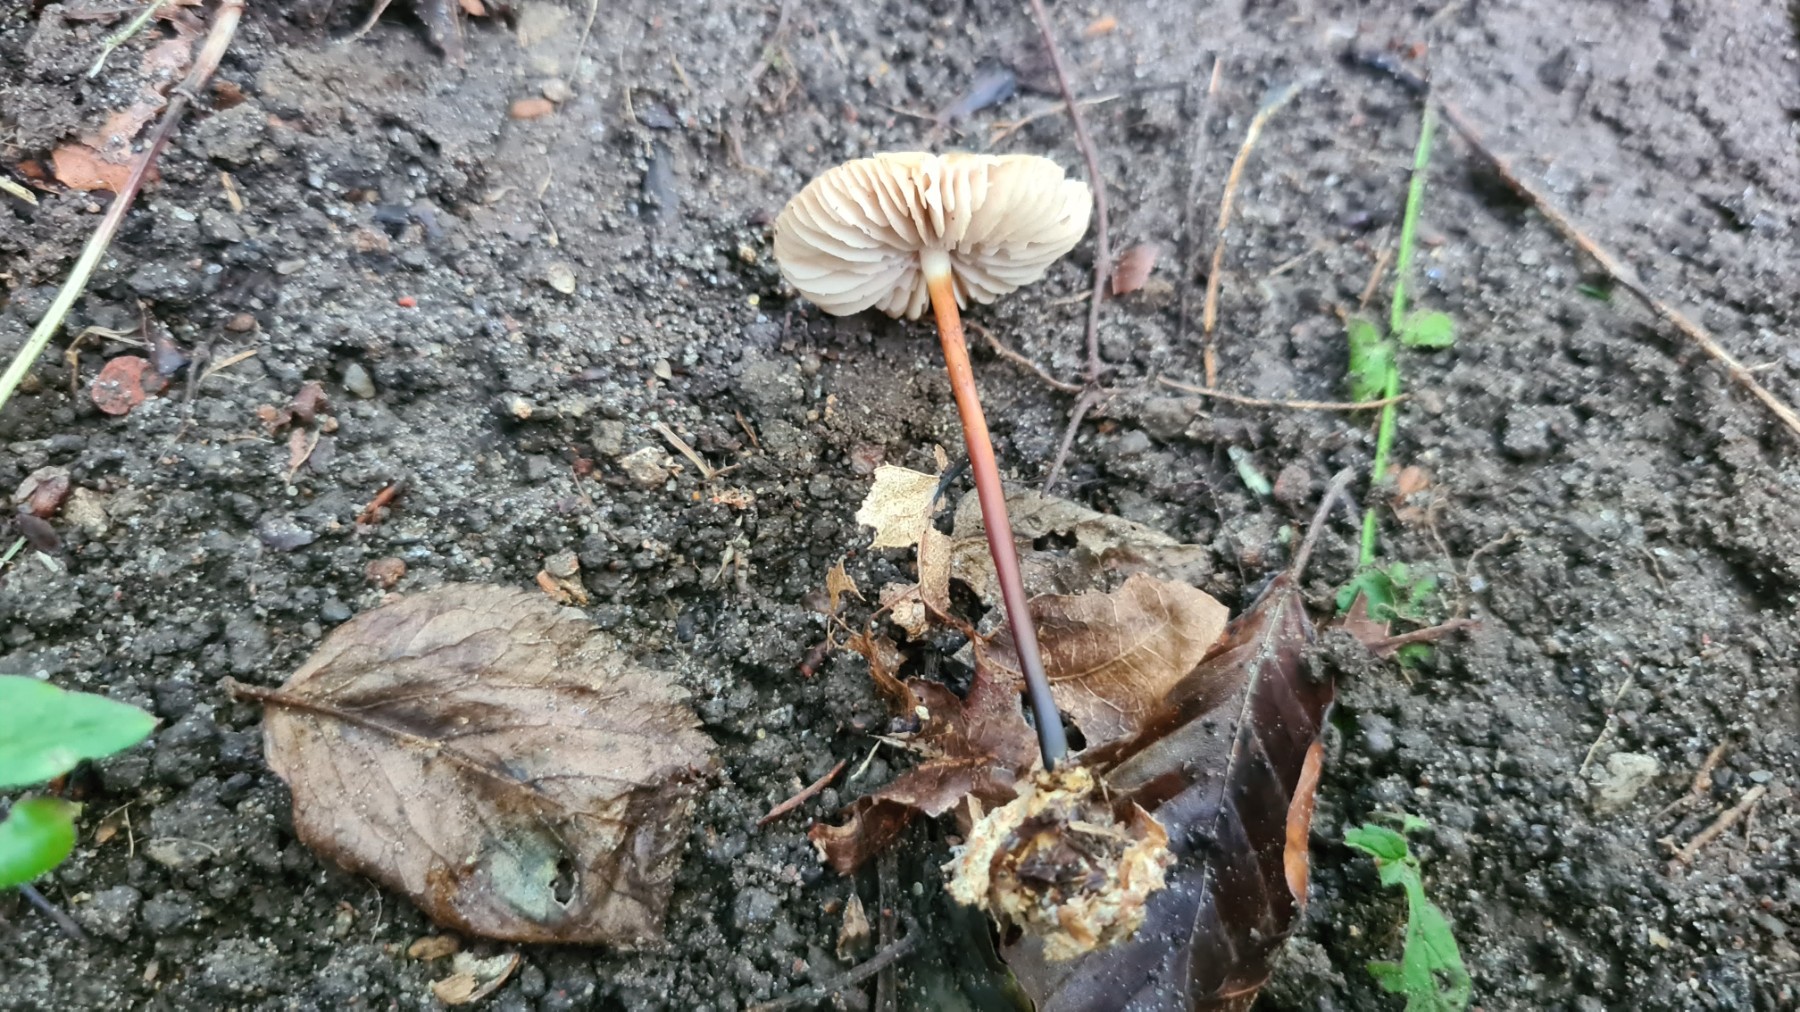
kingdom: Fungi
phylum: Basidiomycota
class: Agaricomycetes
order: Agaricales
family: Marasmiaceae
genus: Marasmius
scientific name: Marasmius cohaerens
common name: hornstokket bruskhat
